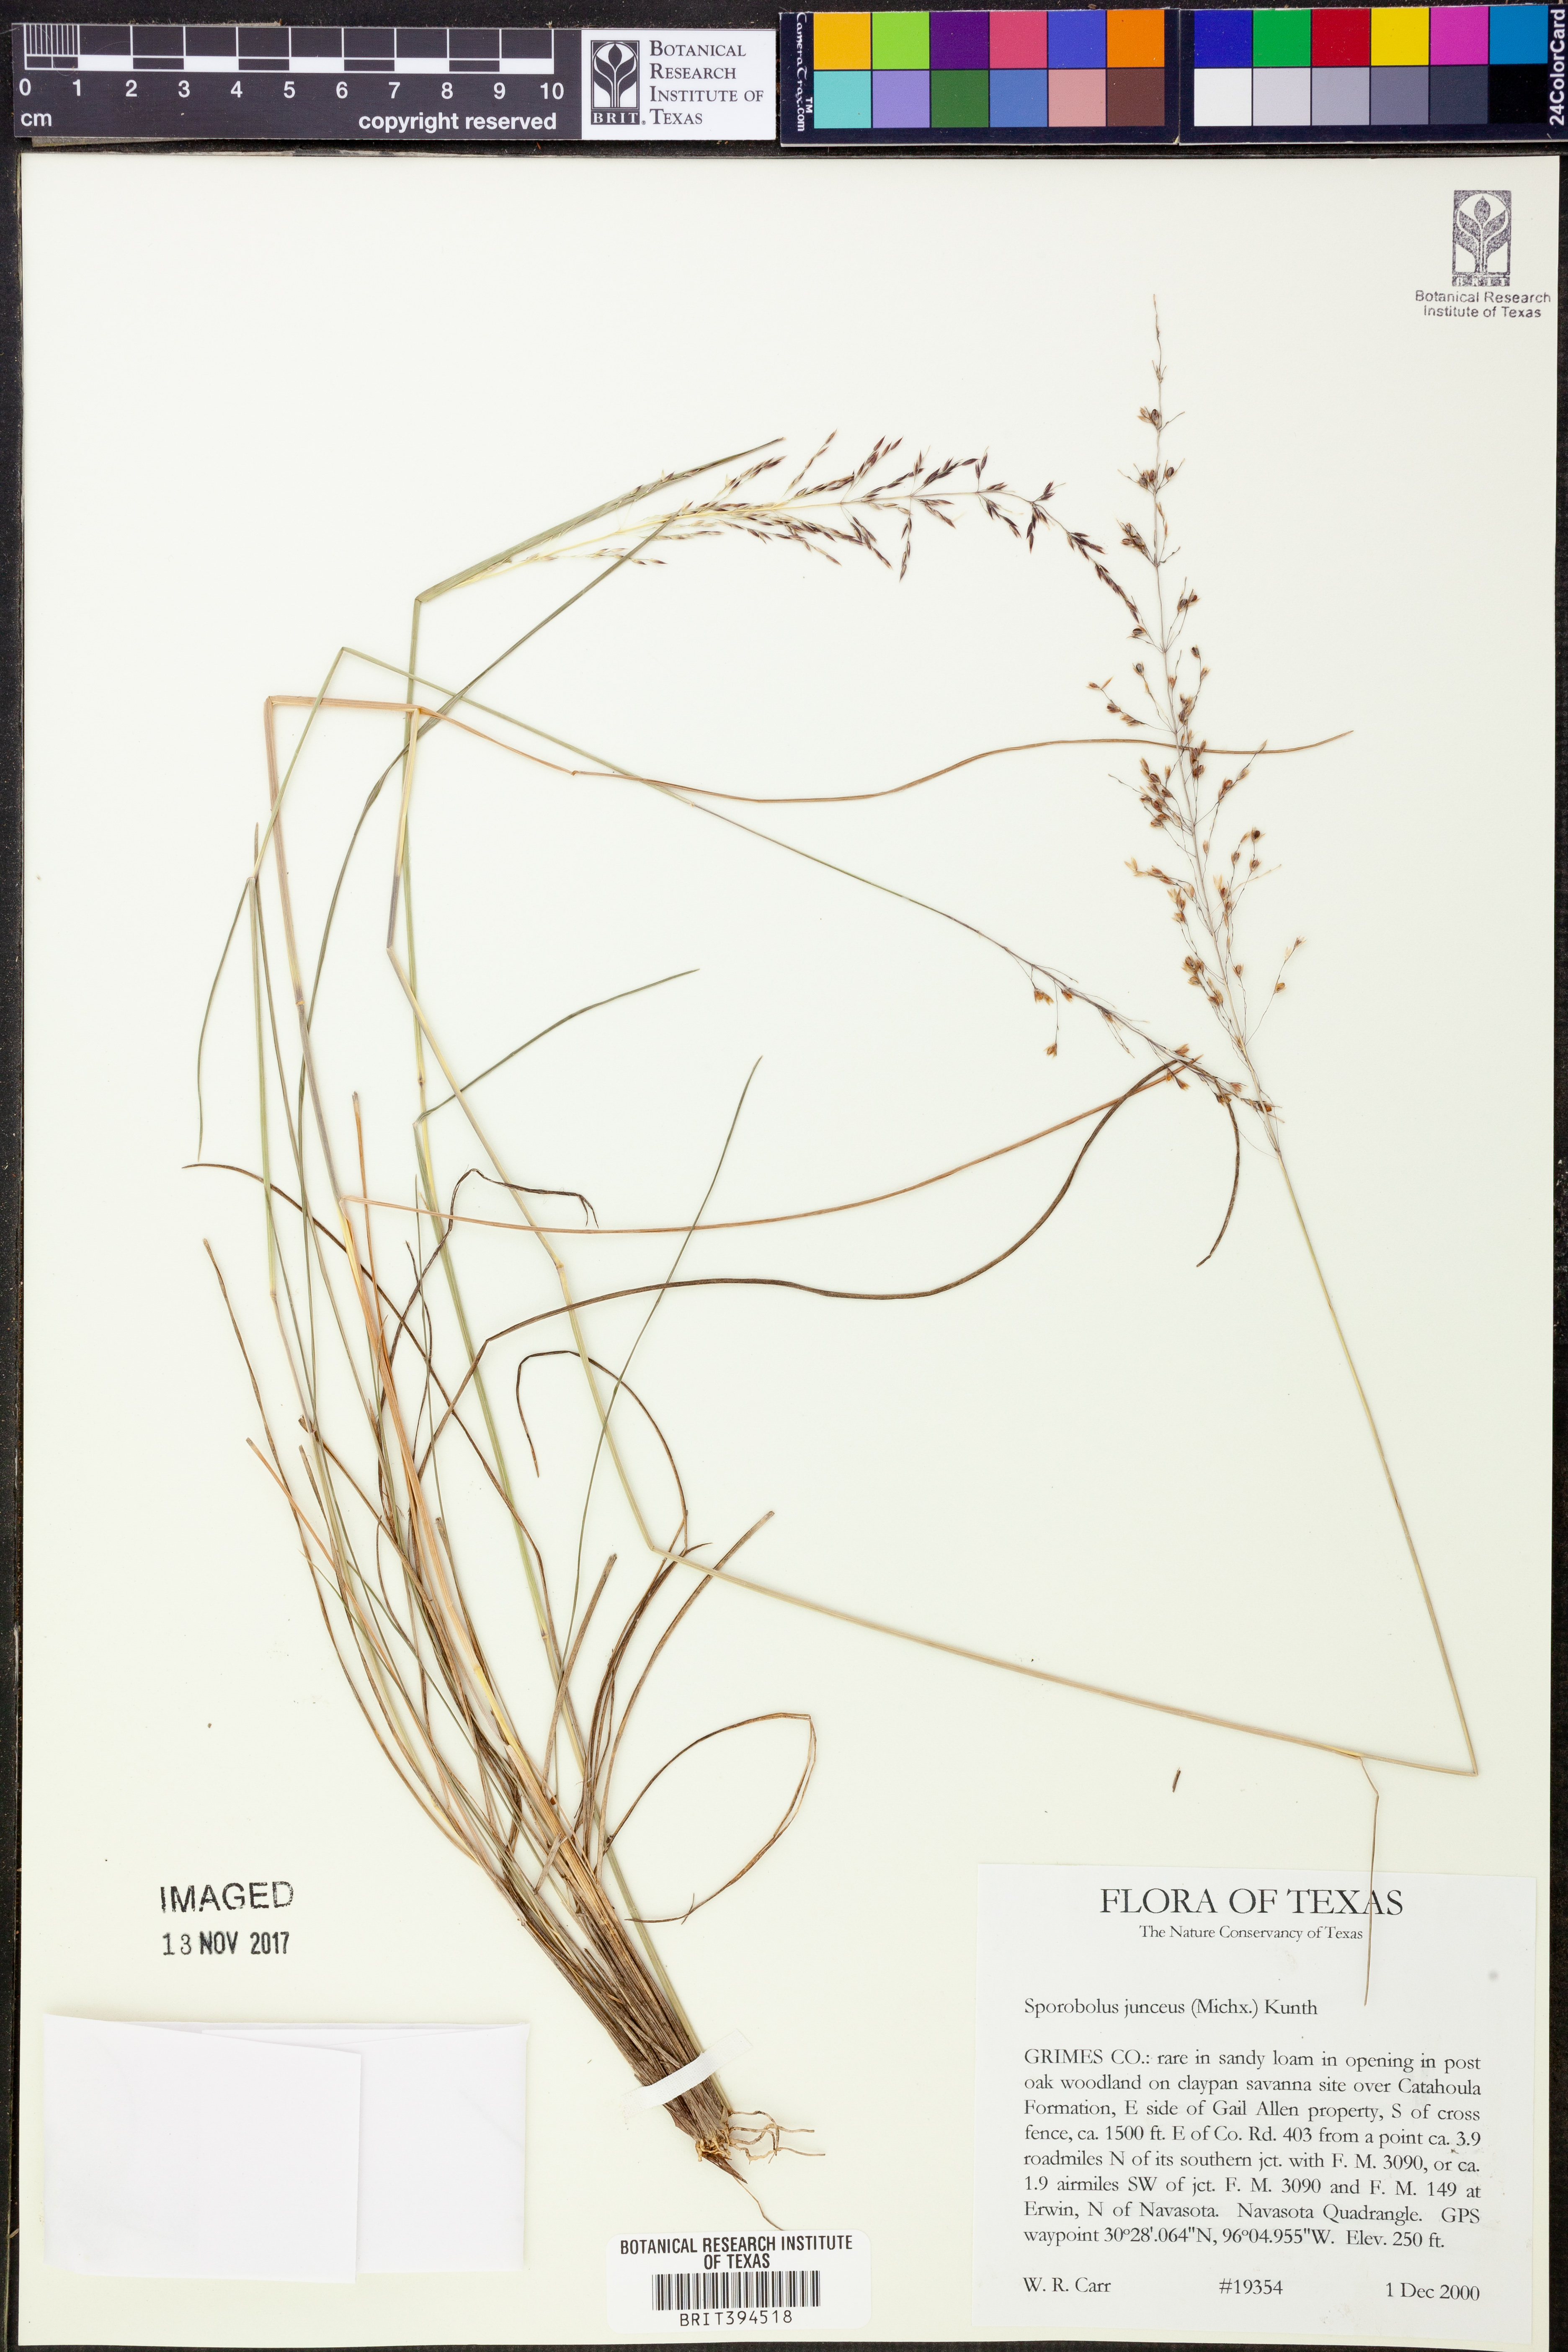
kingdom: Plantae
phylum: Tracheophyta
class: Liliopsida
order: Poales
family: Poaceae
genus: Sporobolus
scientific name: Sporobolus junceus
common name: Lizard grass
